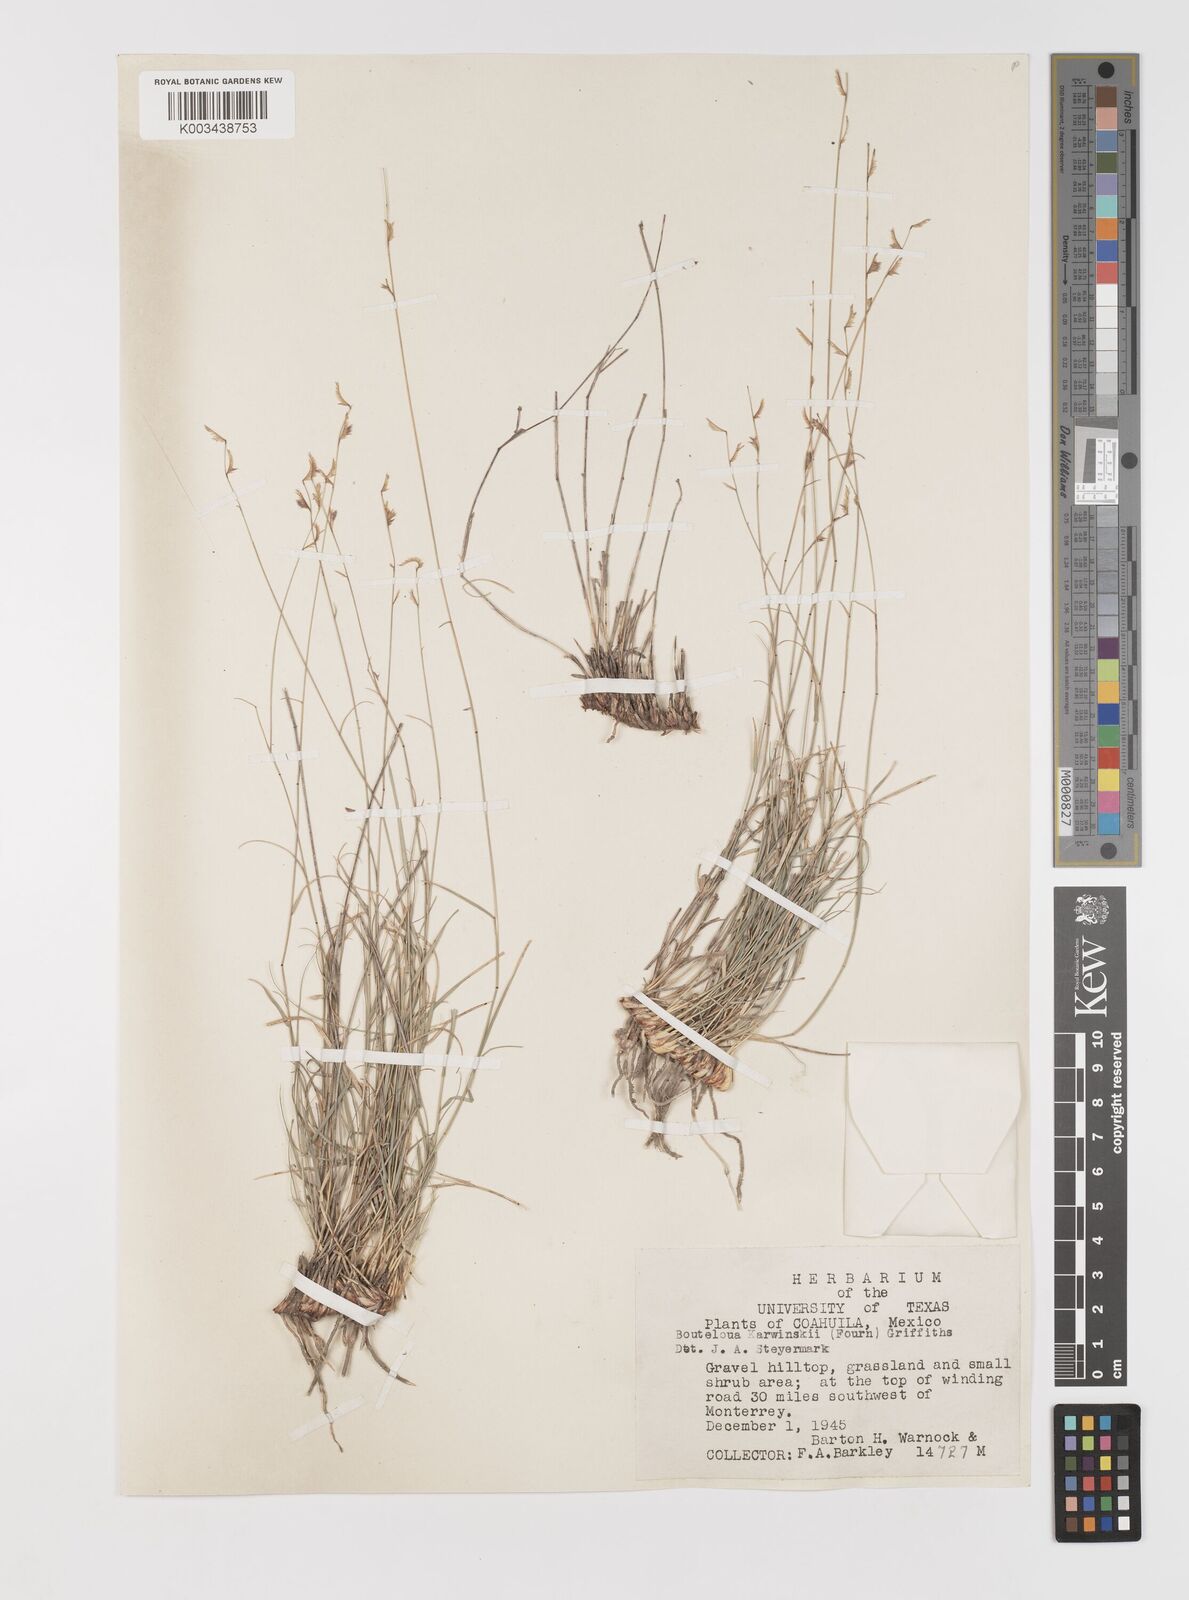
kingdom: Plantae
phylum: Tracheophyta
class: Liliopsida
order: Poales
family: Poaceae
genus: Bouteloua
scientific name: Bouteloua karwinskyi
